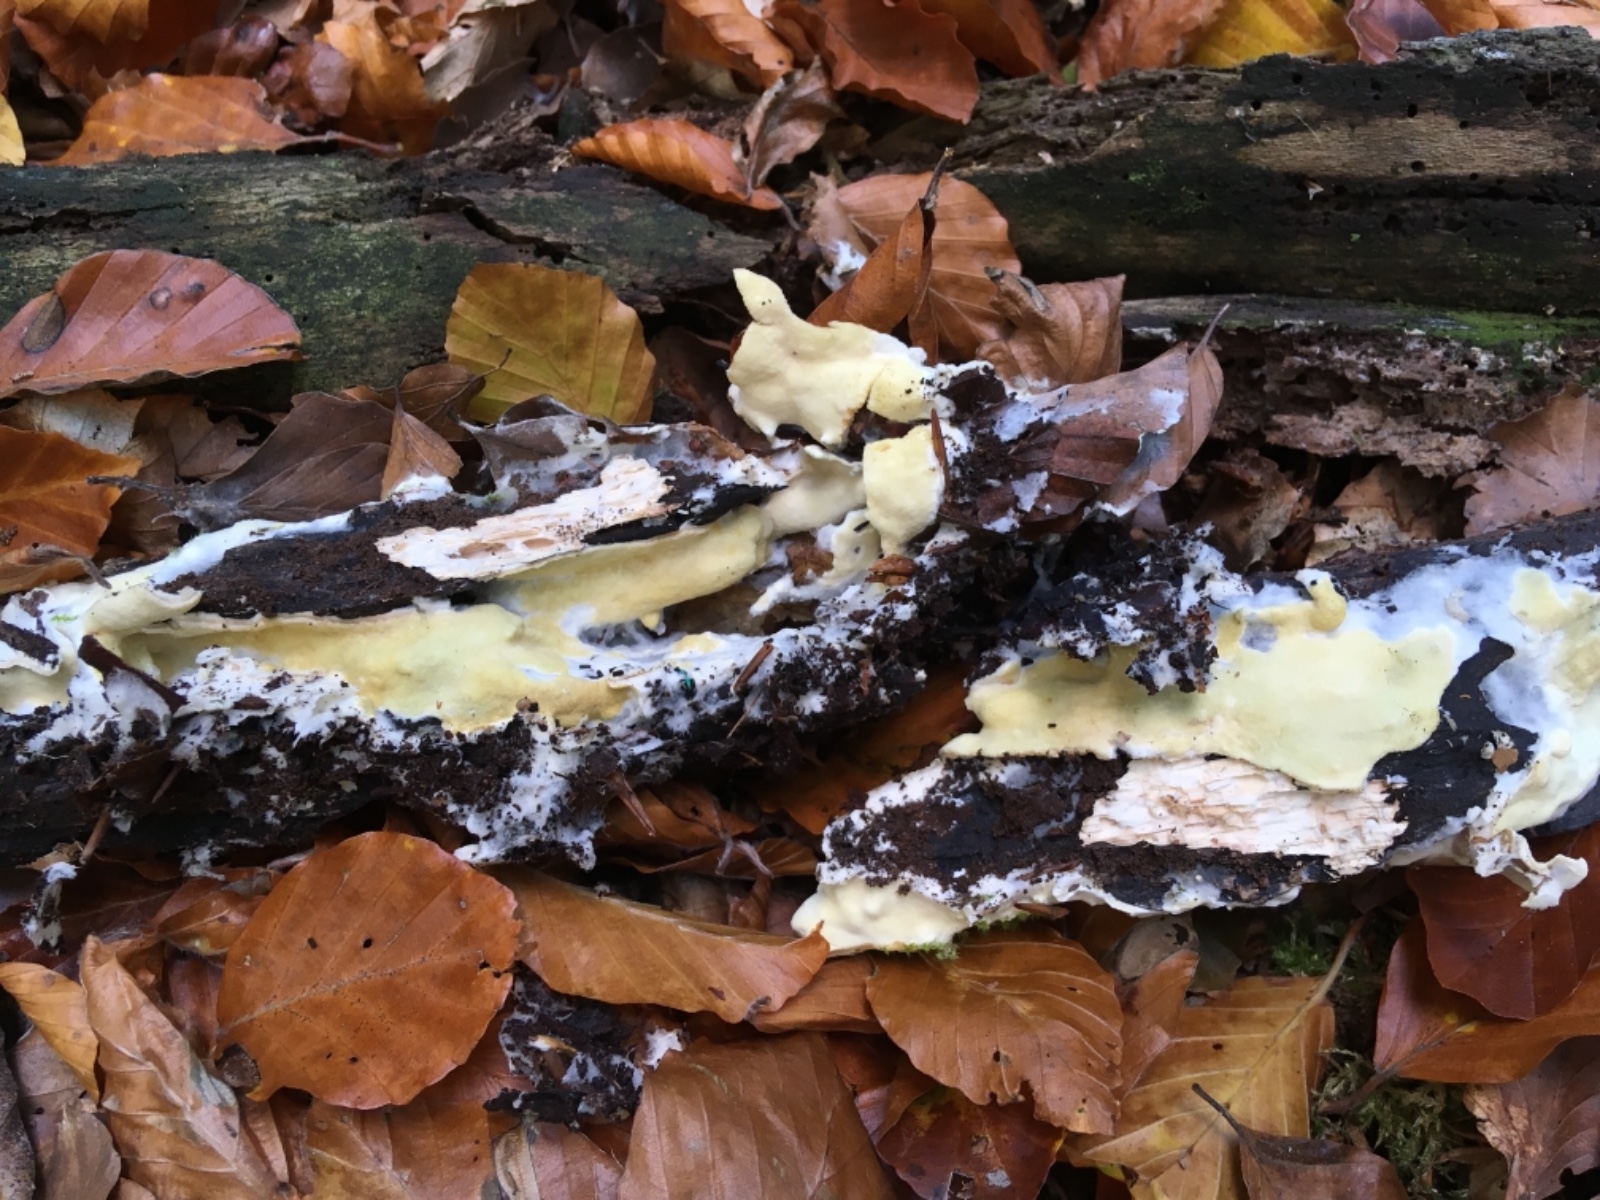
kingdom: Fungi
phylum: Ascomycota
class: Sordariomycetes
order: Hypocreales
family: Hypocreaceae
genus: Trichoderma
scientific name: Trichoderma citrinum
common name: udbredt kødkerne
